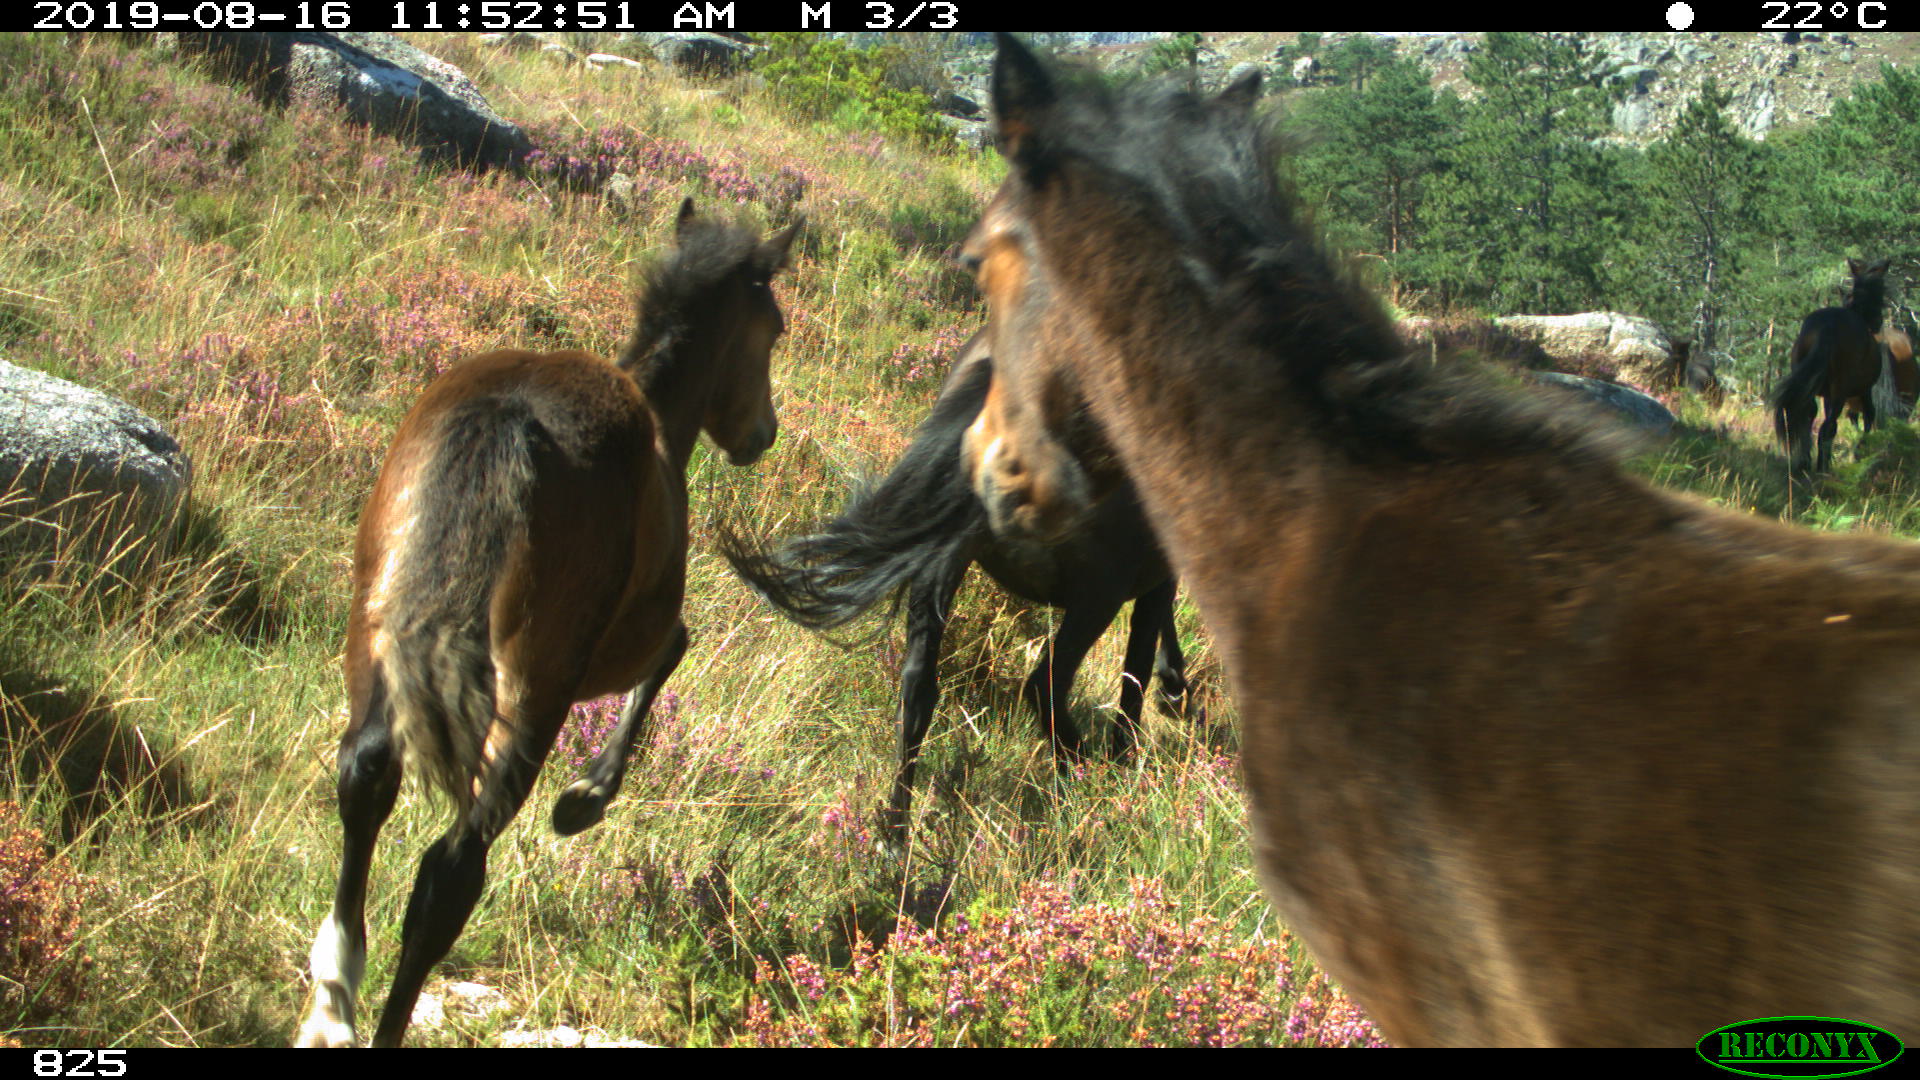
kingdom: Animalia
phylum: Chordata
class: Mammalia
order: Perissodactyla
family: Equidae
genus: Equus
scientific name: Equus caballus
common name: Horse
